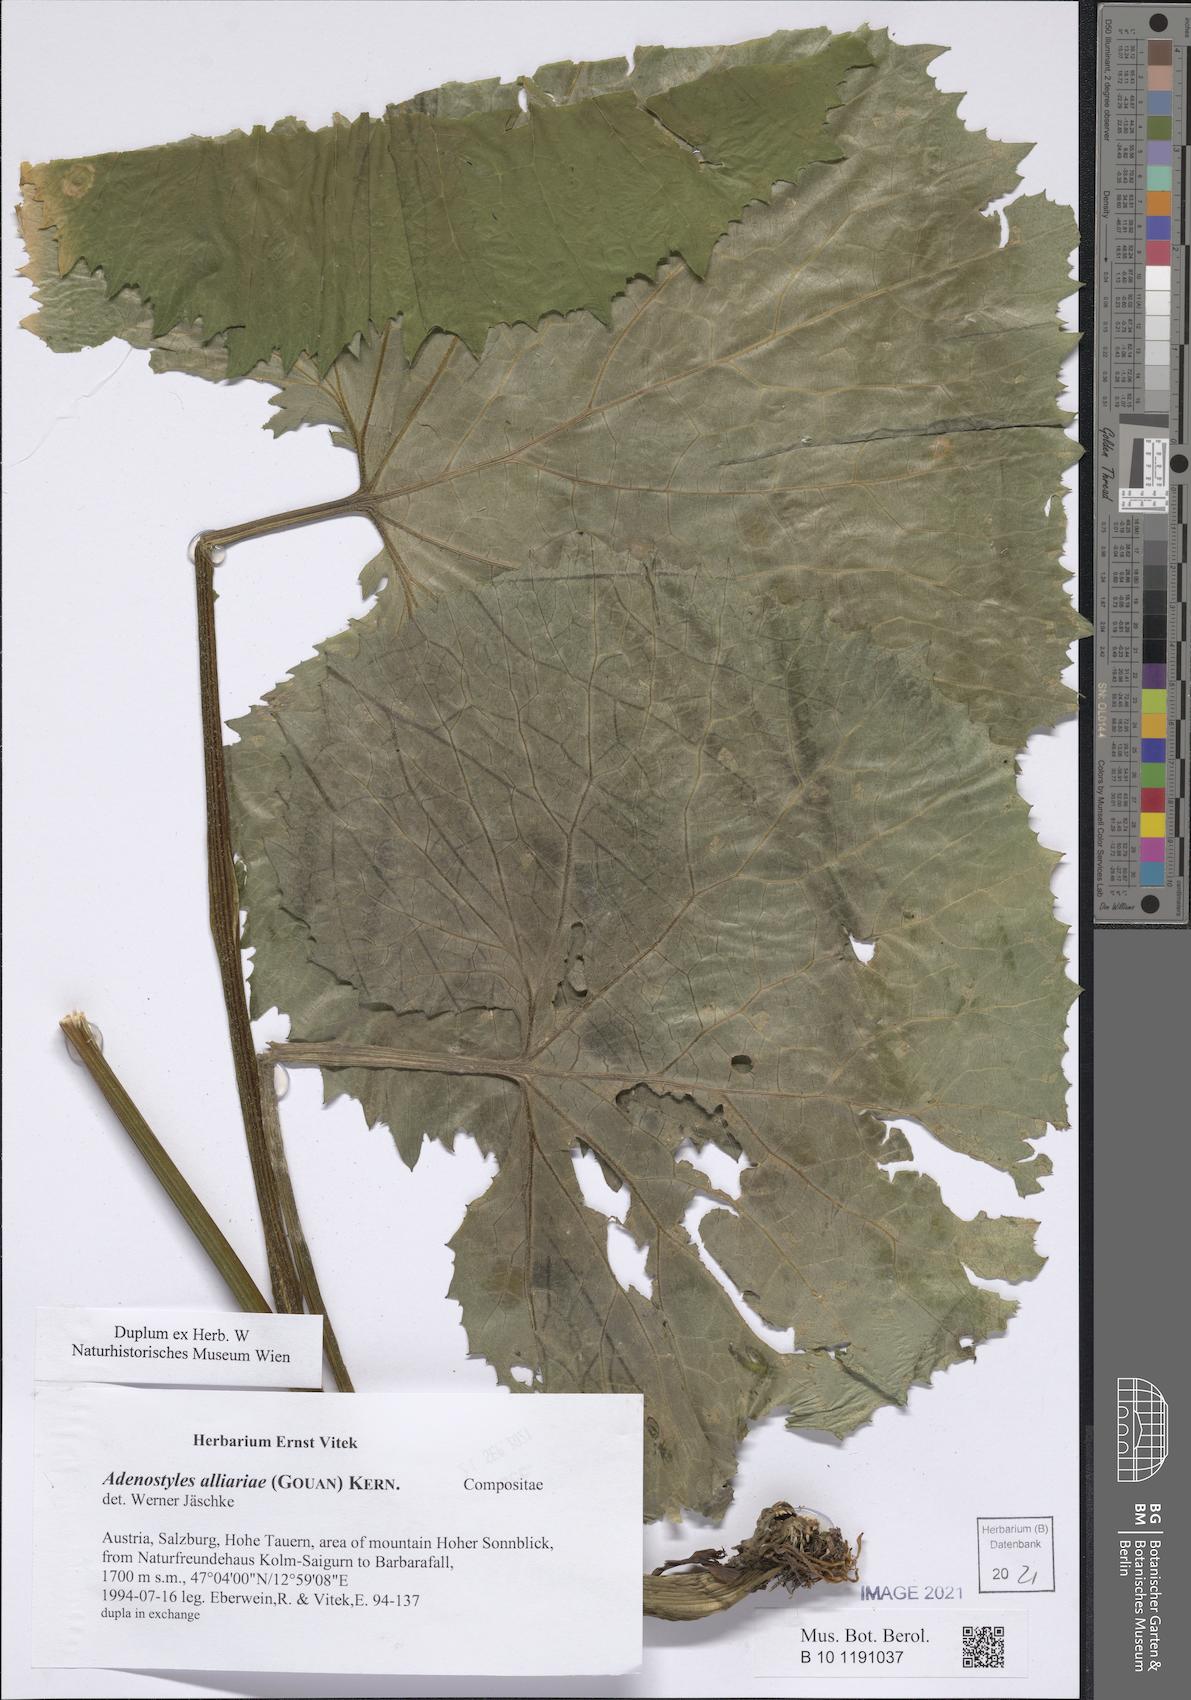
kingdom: Plantae
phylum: Tracheophyta
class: Magnoliopsida
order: Asterales
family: Asteraceae
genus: Adenostyles
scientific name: Adenostyles alliariae
